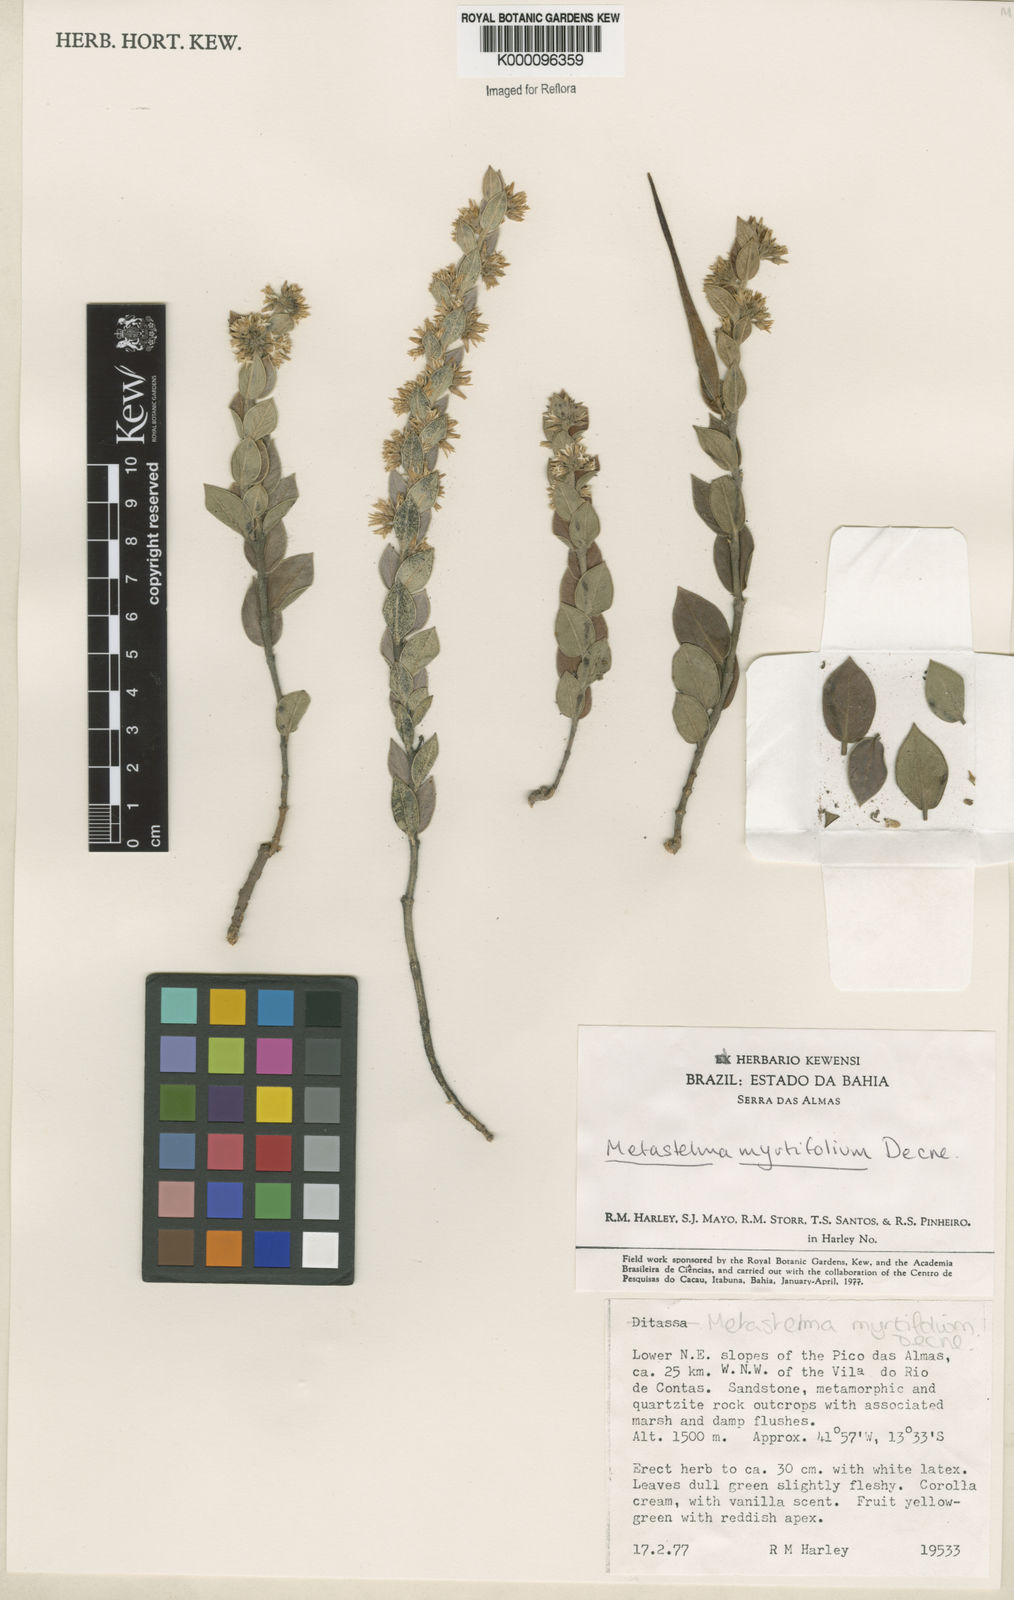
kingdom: Plantae
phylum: Tracheophyta
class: Magnoliopsida
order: Gentianales
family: Apocynaceae
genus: Metastelma
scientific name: Metastelma myrtifolium
